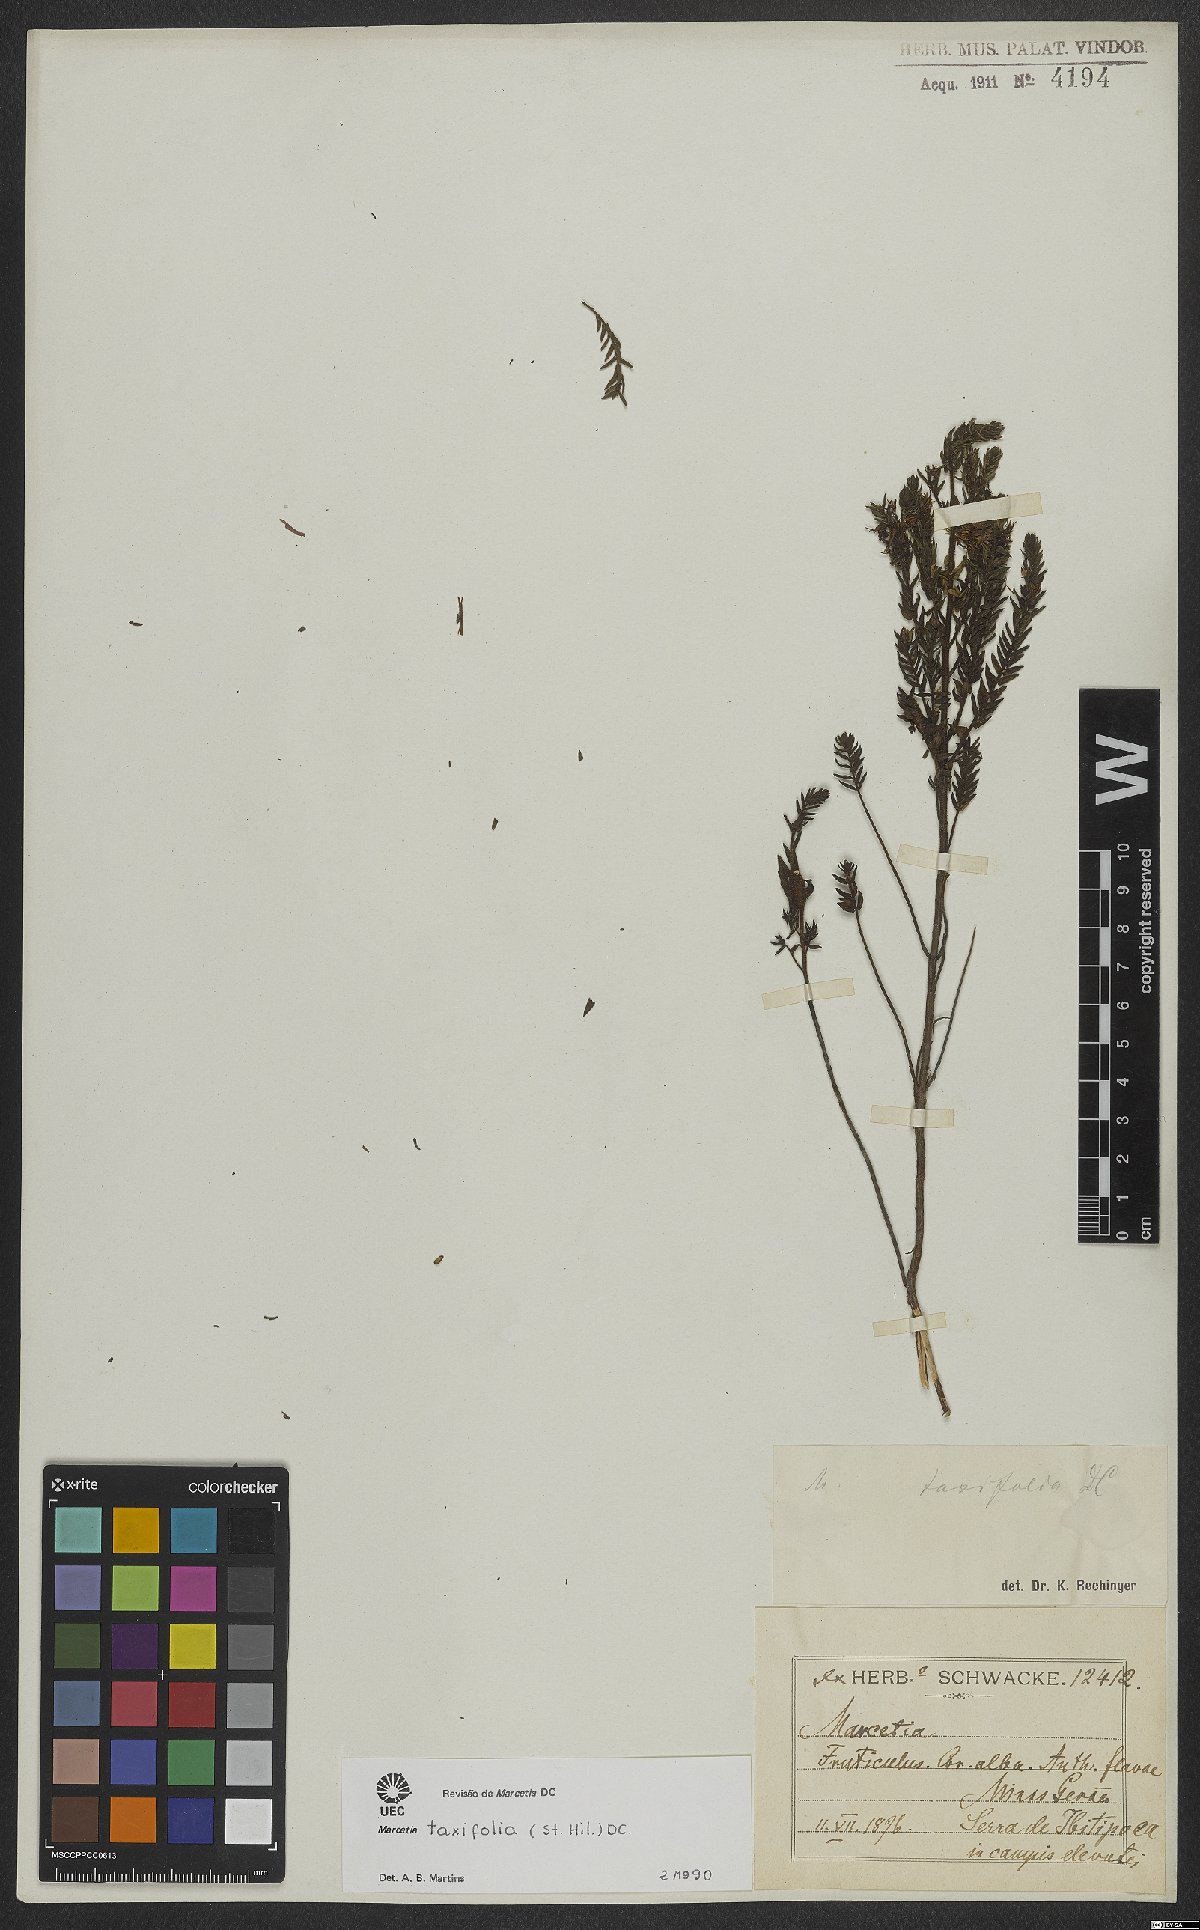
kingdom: Plantae
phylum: Tracheophyta
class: Magnoliopsida
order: Myrtales
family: Melastomataceae
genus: Marcetia
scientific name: Marcetia taxifolia
